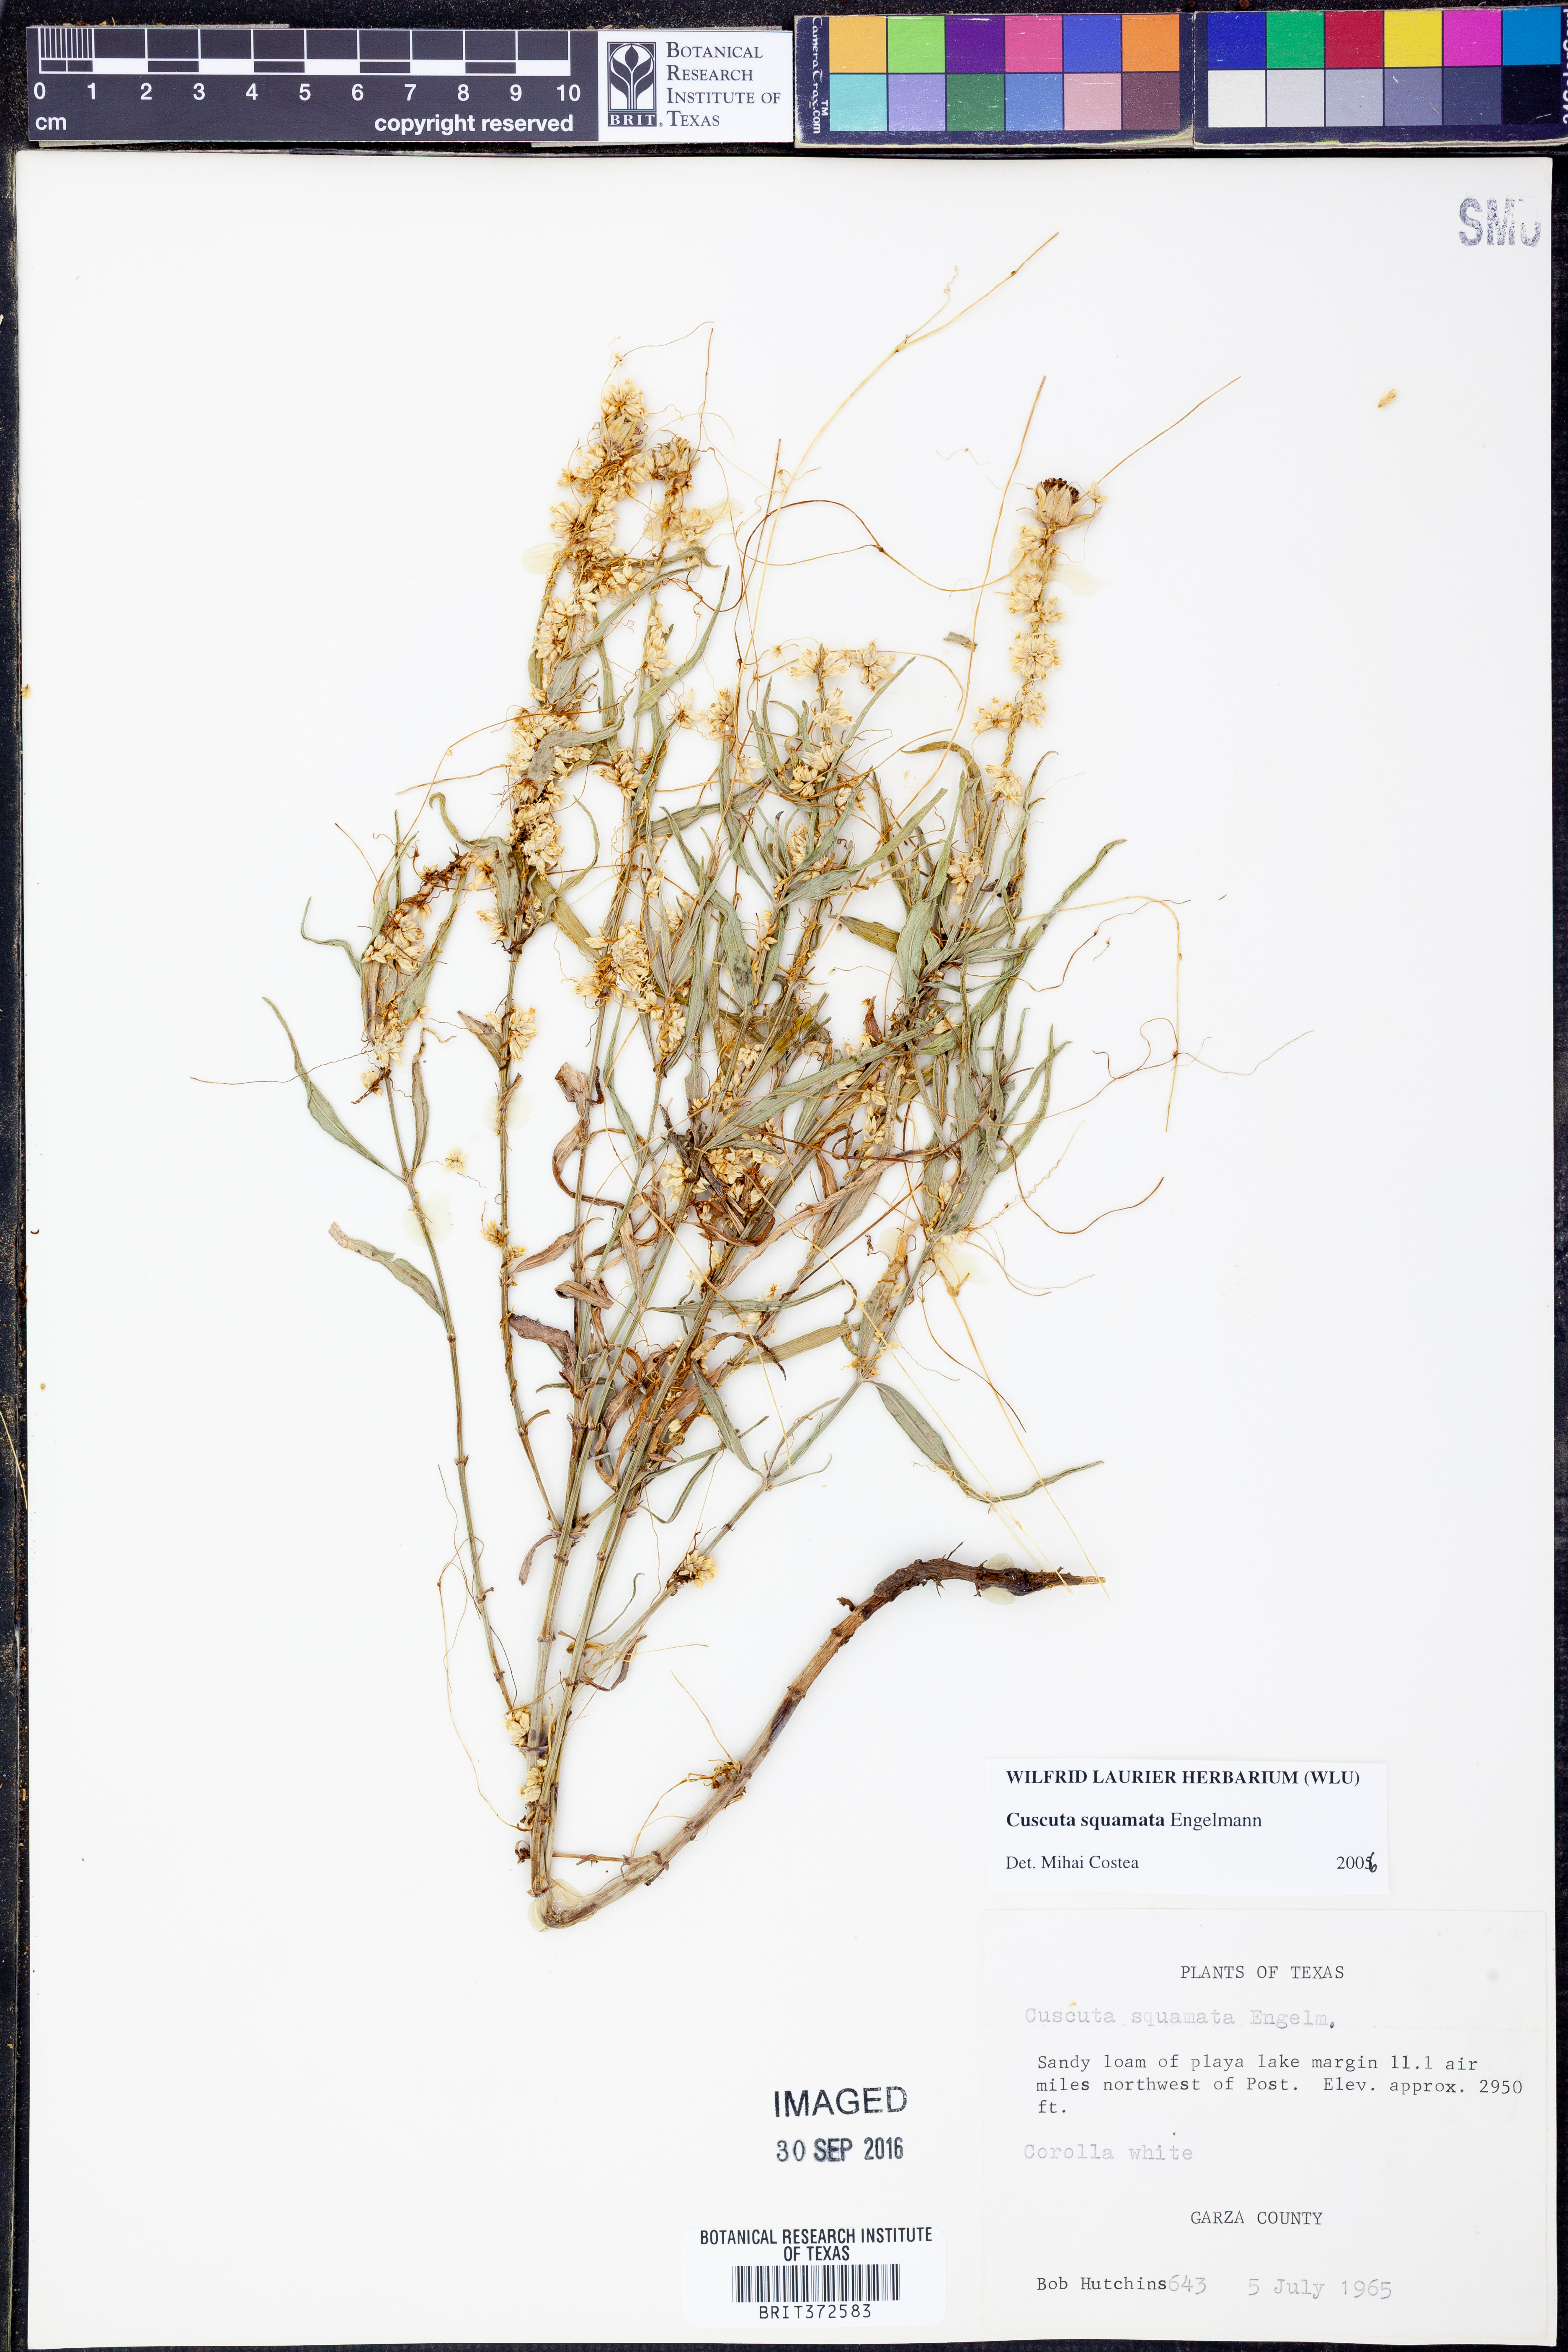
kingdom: Plantae
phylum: Tracheophyta
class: Magnoliopsida
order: Solanales
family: Convolvulaceae
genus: Cuscuta
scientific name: Cuscuta squamata
